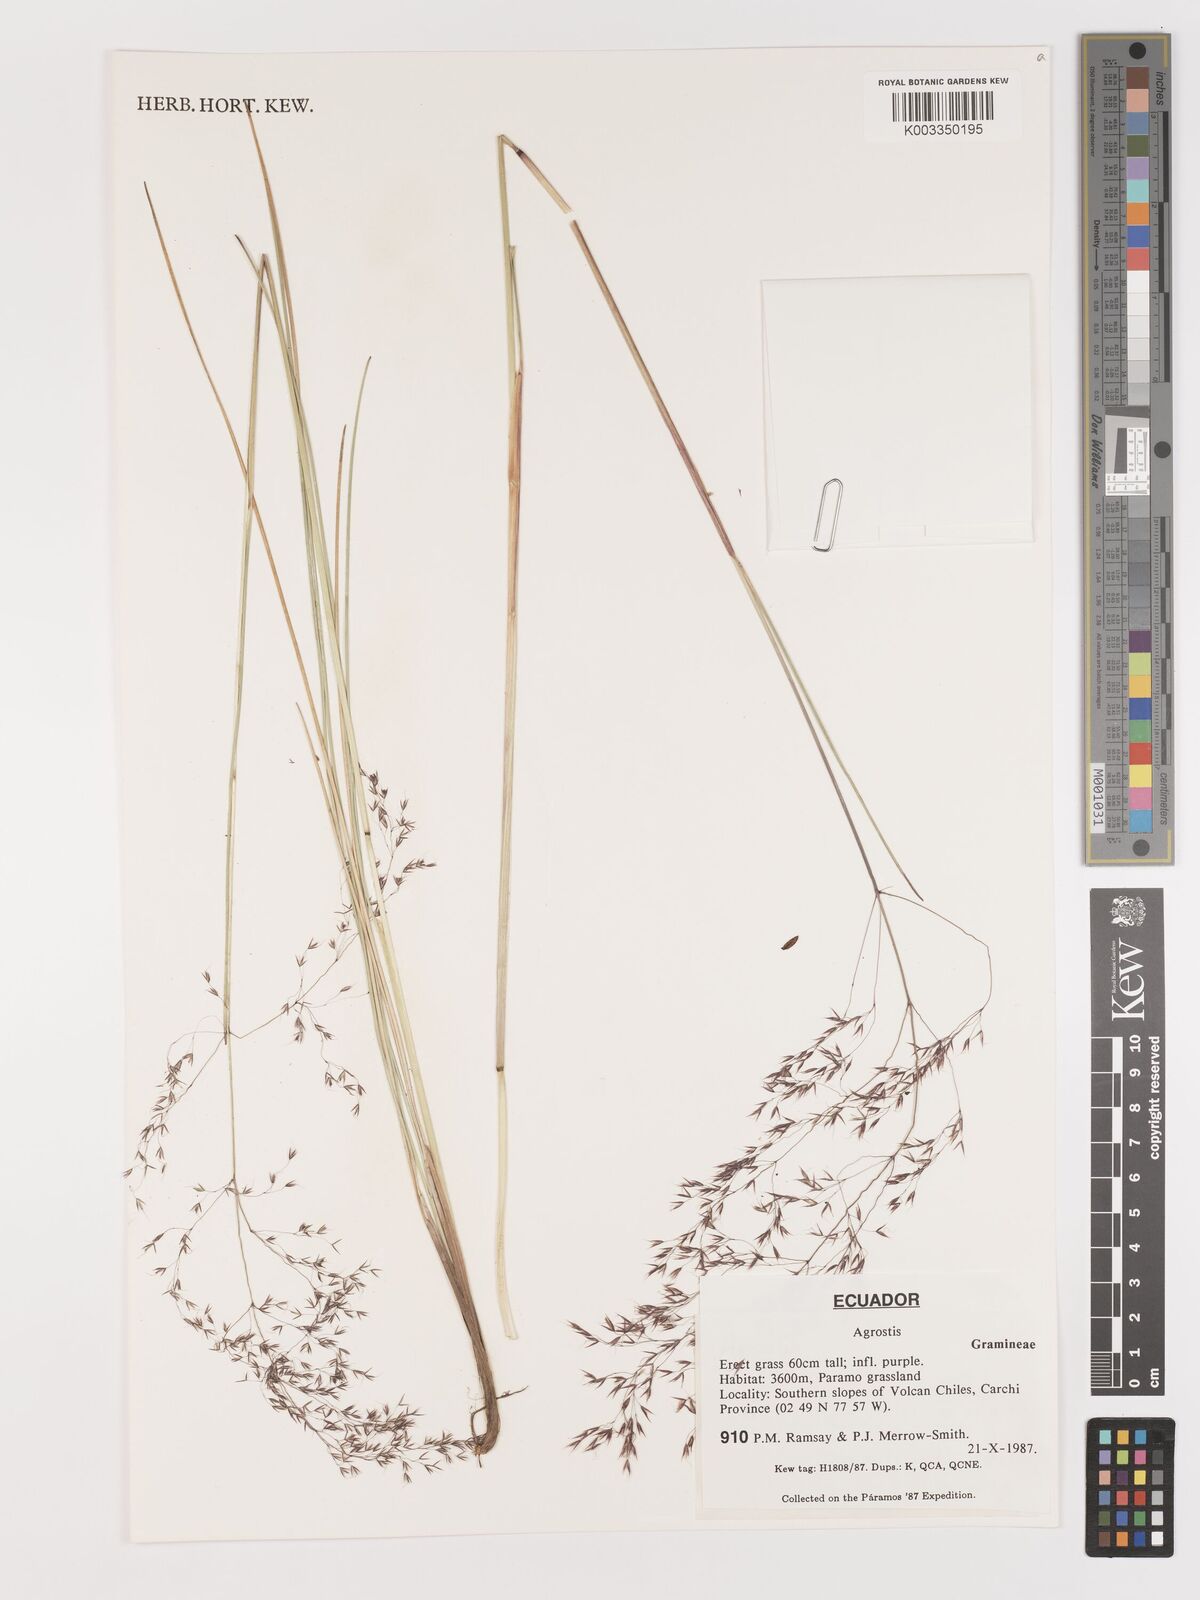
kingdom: Plantae
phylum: Tracheophyta
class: Liliopsida
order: Poales
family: Poaceae
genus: Agrostis
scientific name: Agrostis
